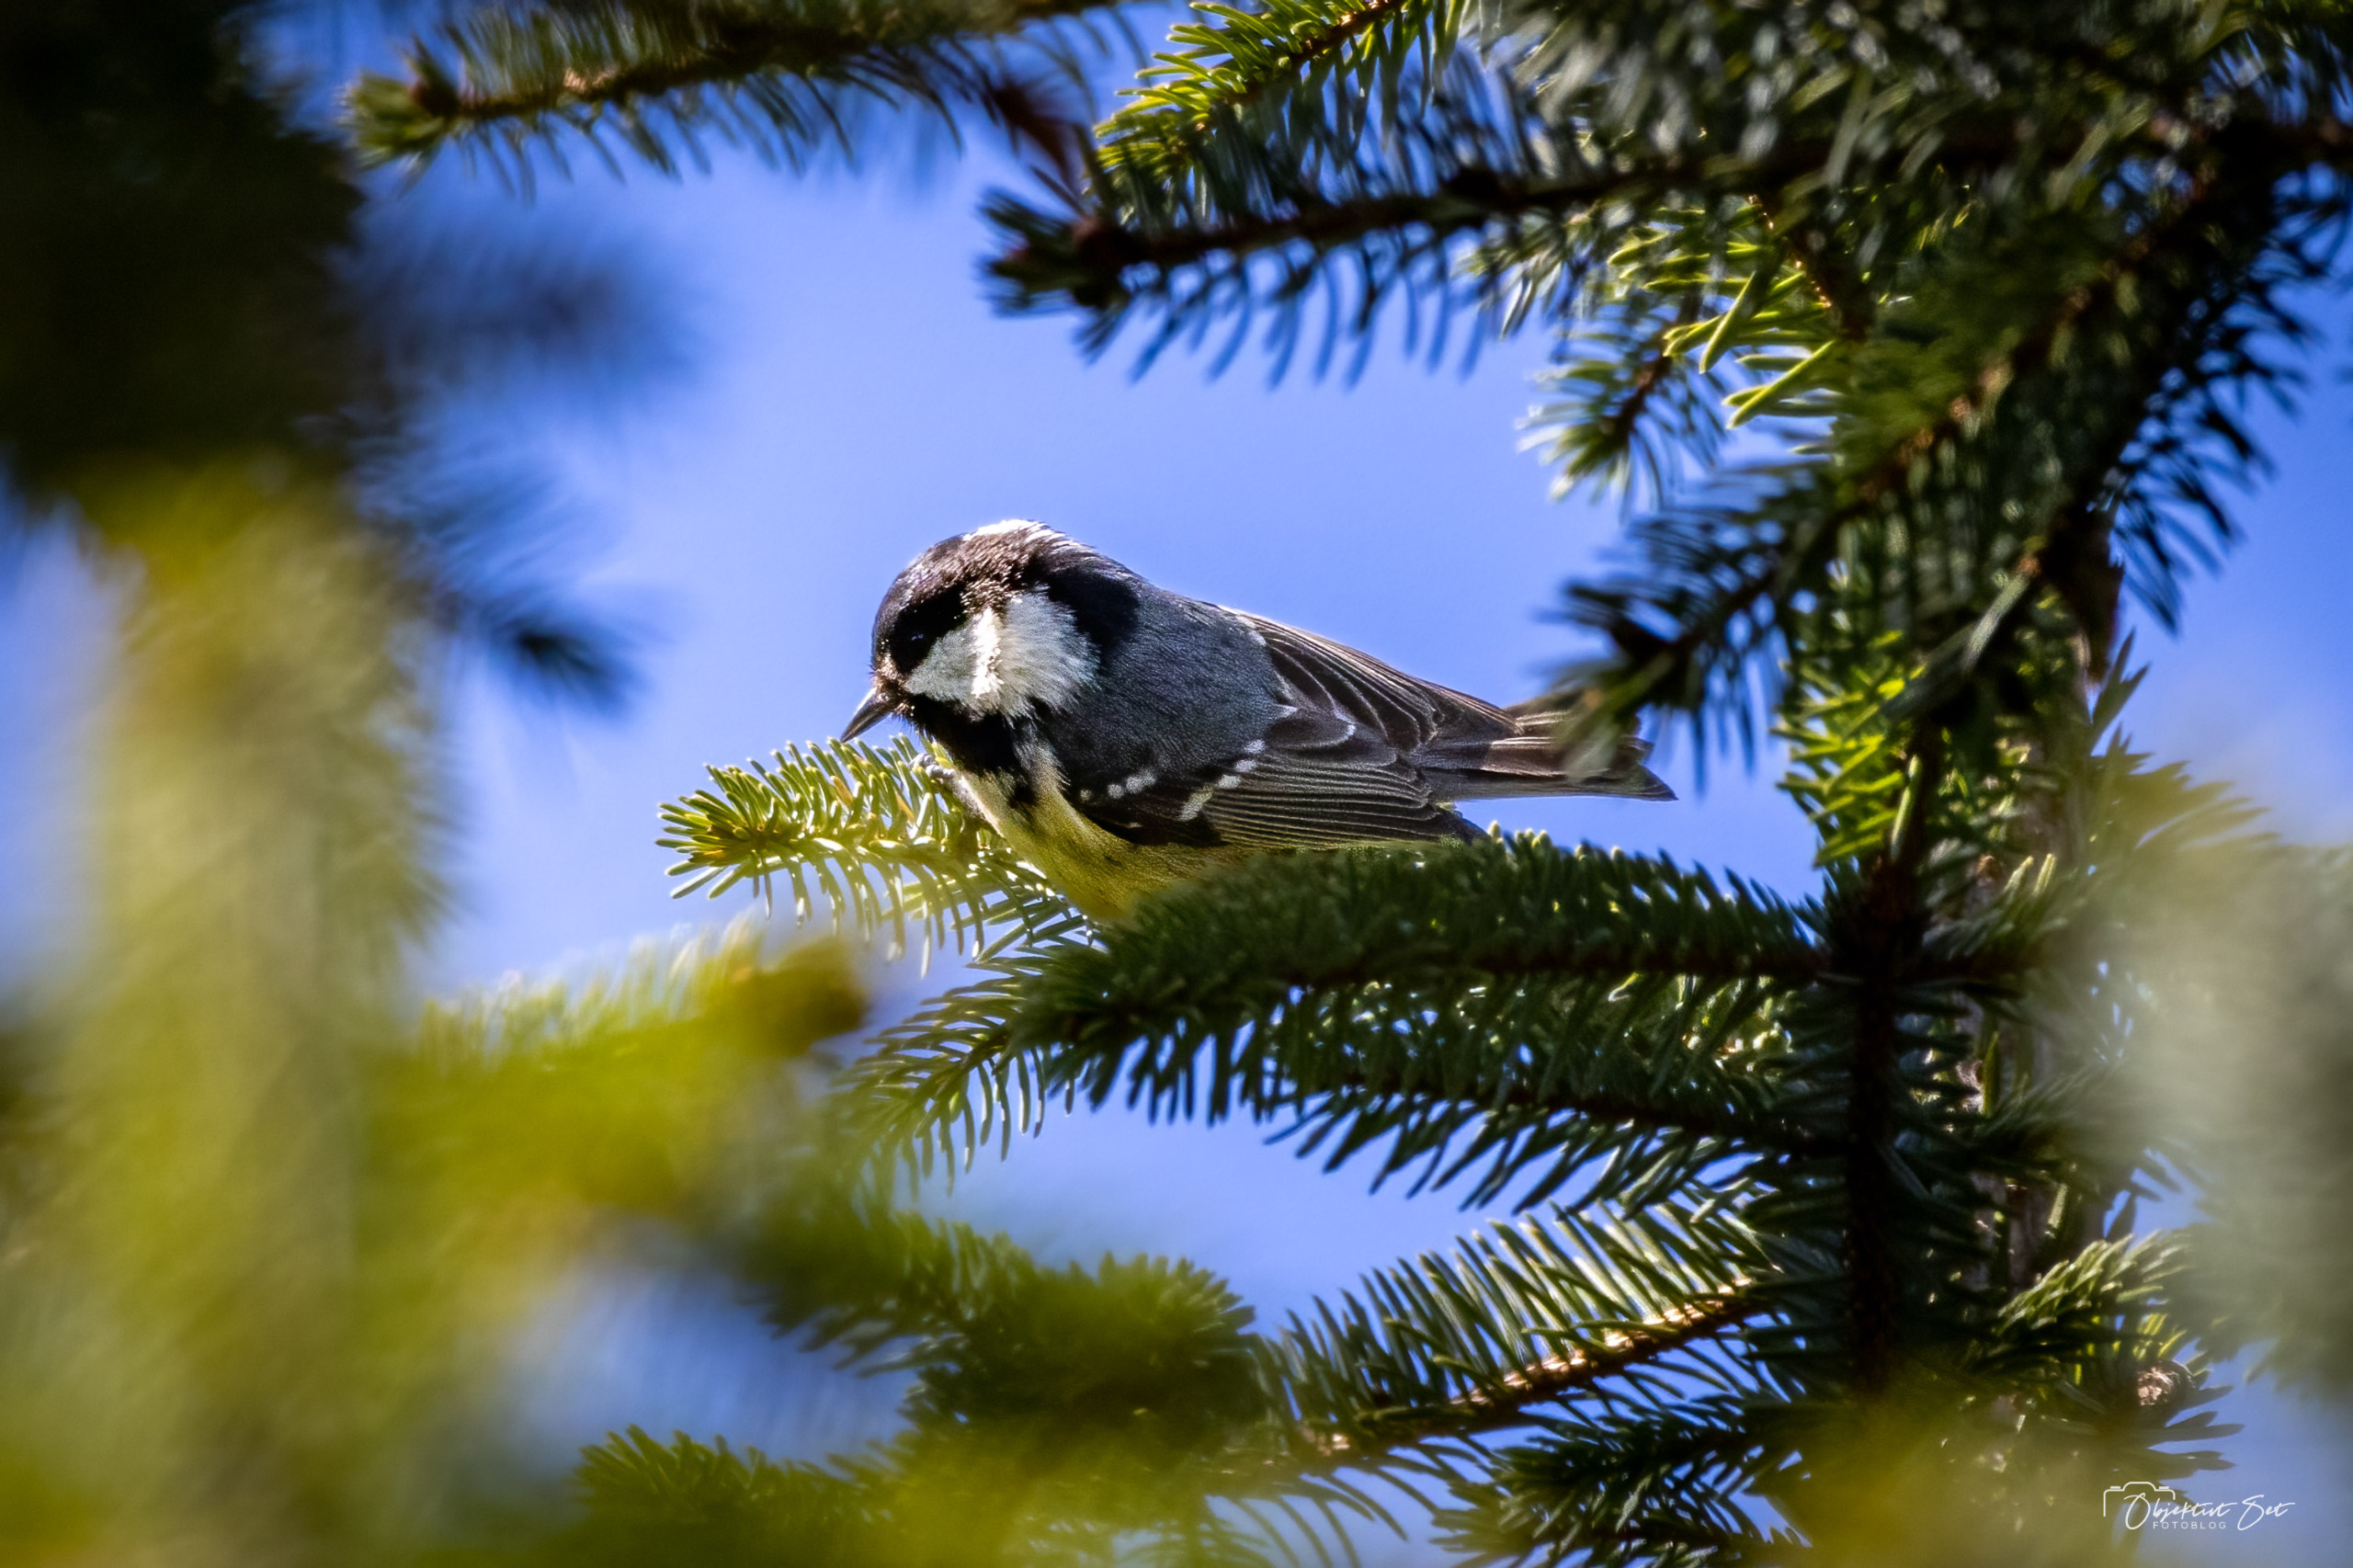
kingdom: Animalia
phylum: Chordata
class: Aves
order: Passeriformes
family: Paridae
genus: Periparus
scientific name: Periparus ater
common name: Sortmejse
